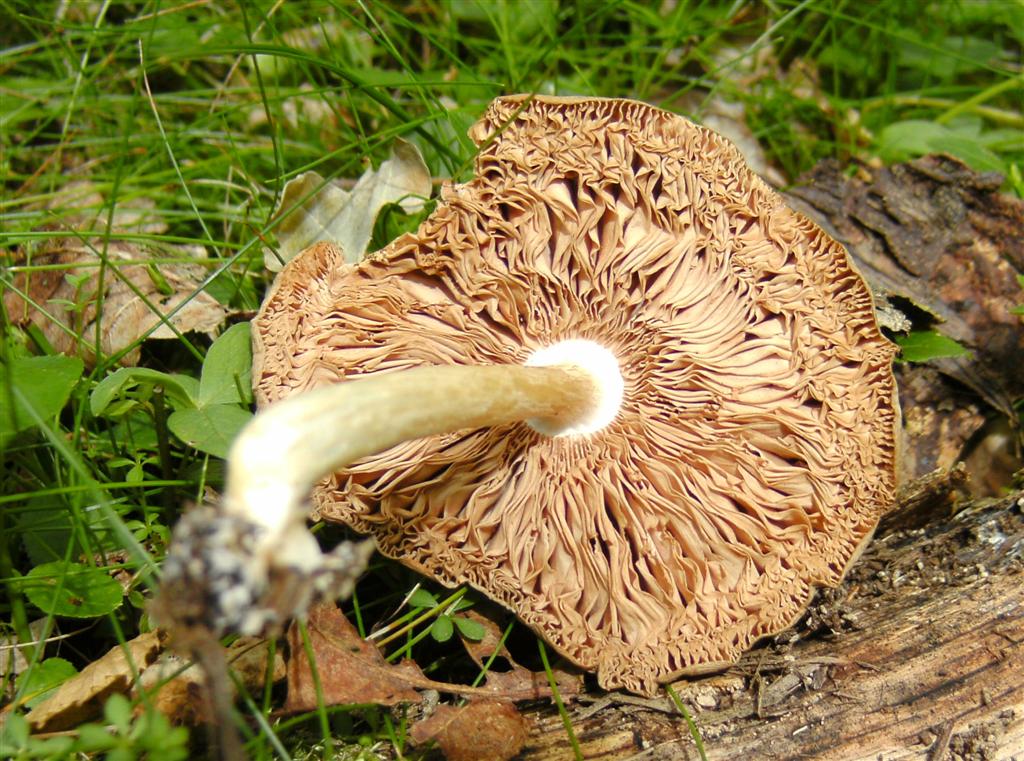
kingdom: Fungi
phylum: Basidiomycota
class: Agaricomycetes
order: Agaricales
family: Pluteaceae
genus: Pluteus
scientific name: Pluteus cervinus
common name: sodfarvet skærmhat
